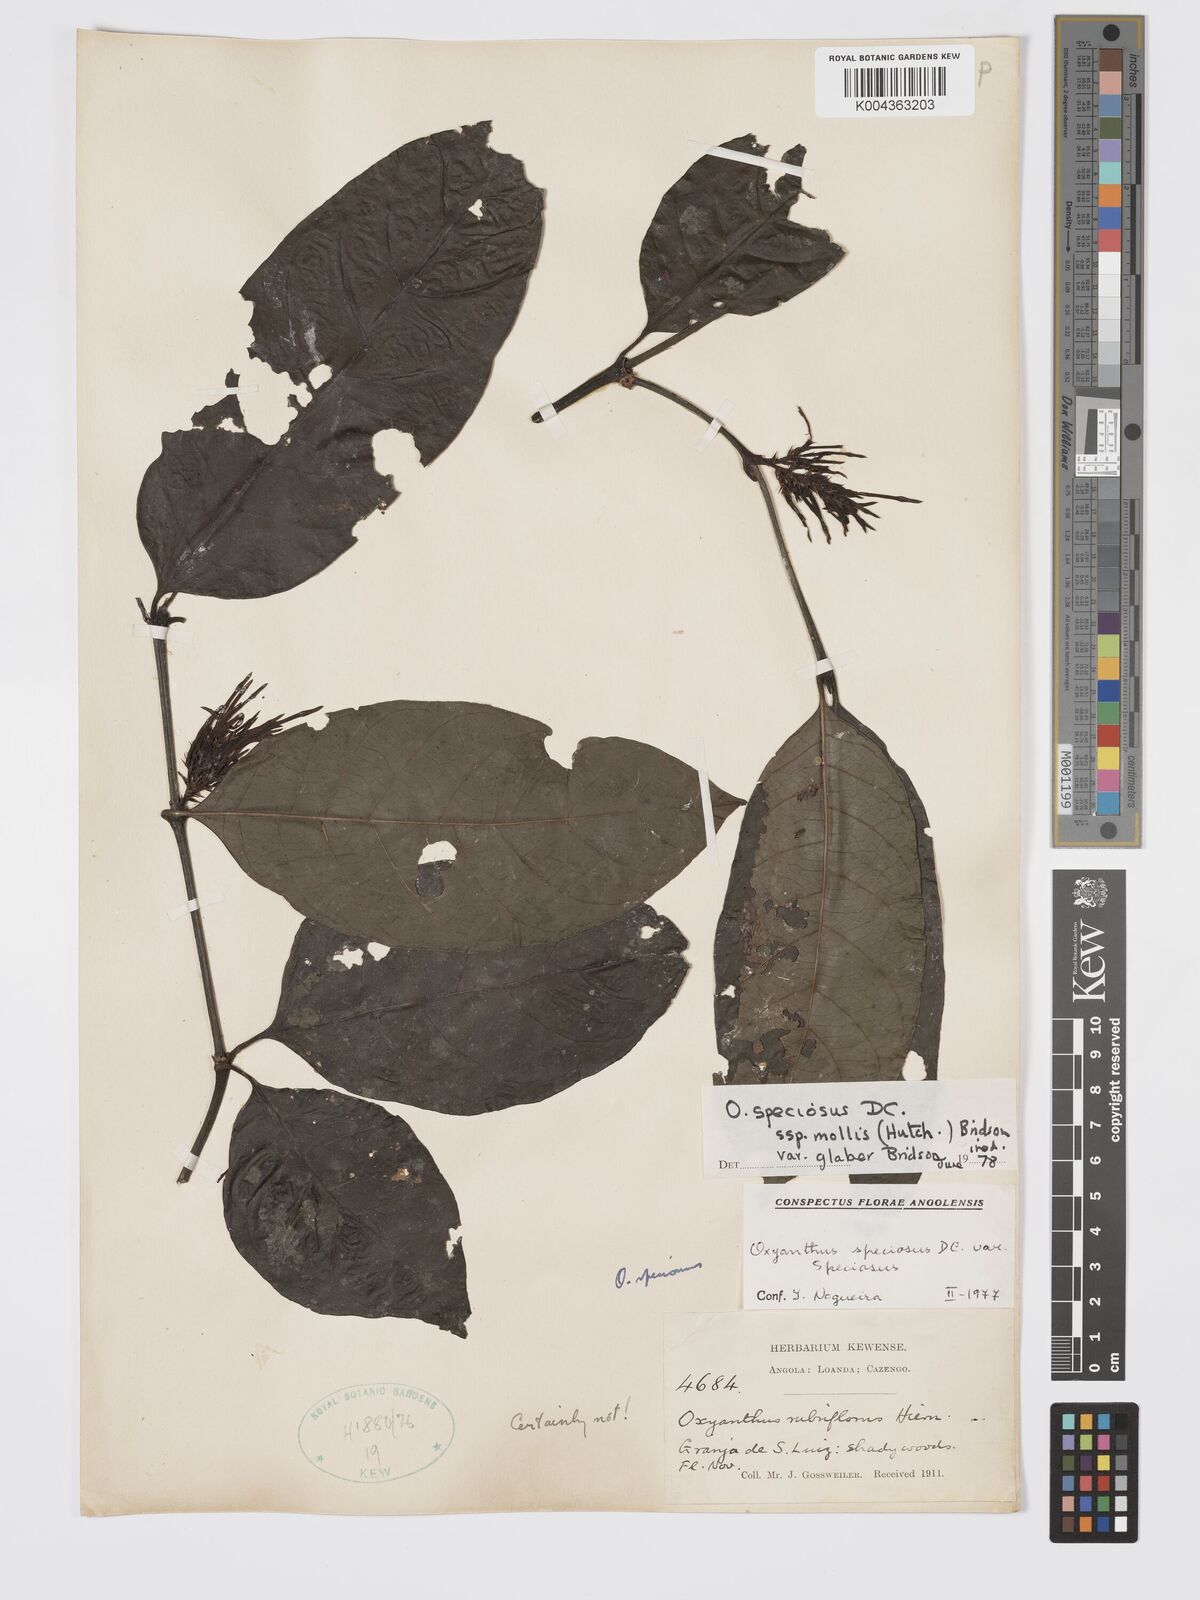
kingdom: Plantae
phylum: Tracheophyta
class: Magnoliopsida
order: Gentianales
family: Rubiaceae
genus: Oxyanthus
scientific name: Oxyanthus speciosus
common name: Whipstick loquat
